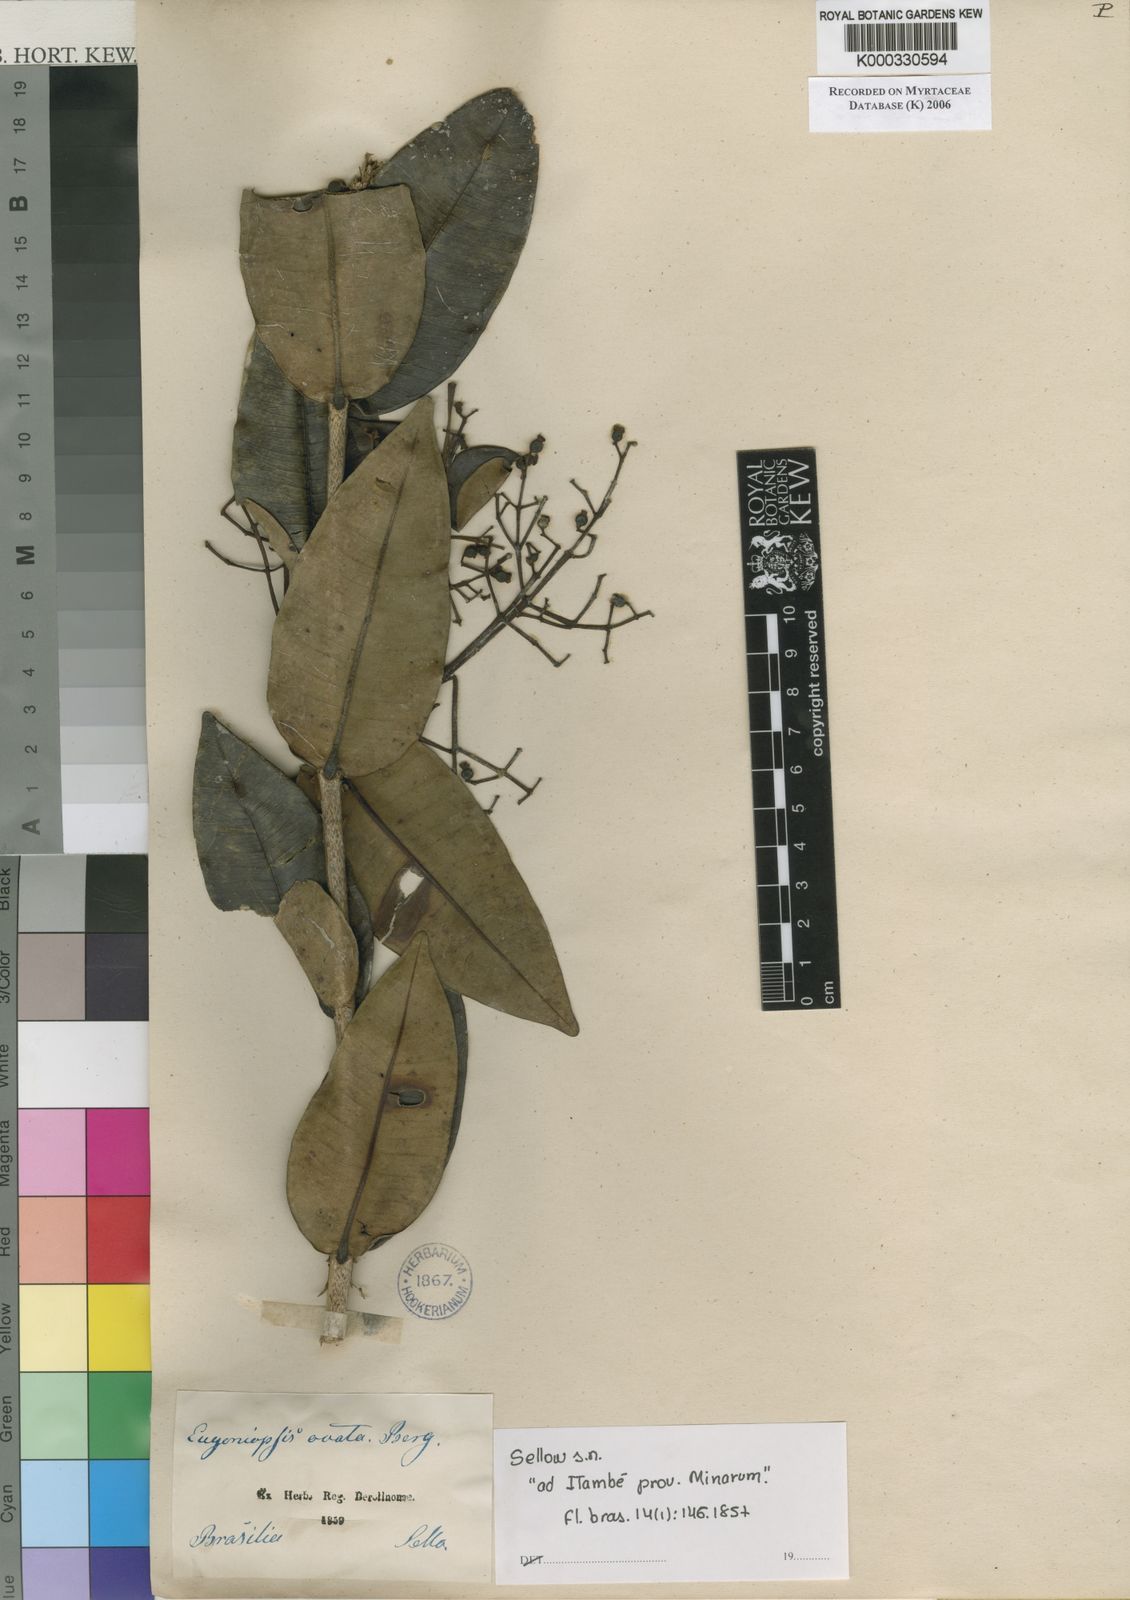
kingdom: Plantae
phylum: Tracheophyta
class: Magnoliopsida
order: Myrtales
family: Myrtaceae
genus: Myrcia
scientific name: Myrcia eugenioides
